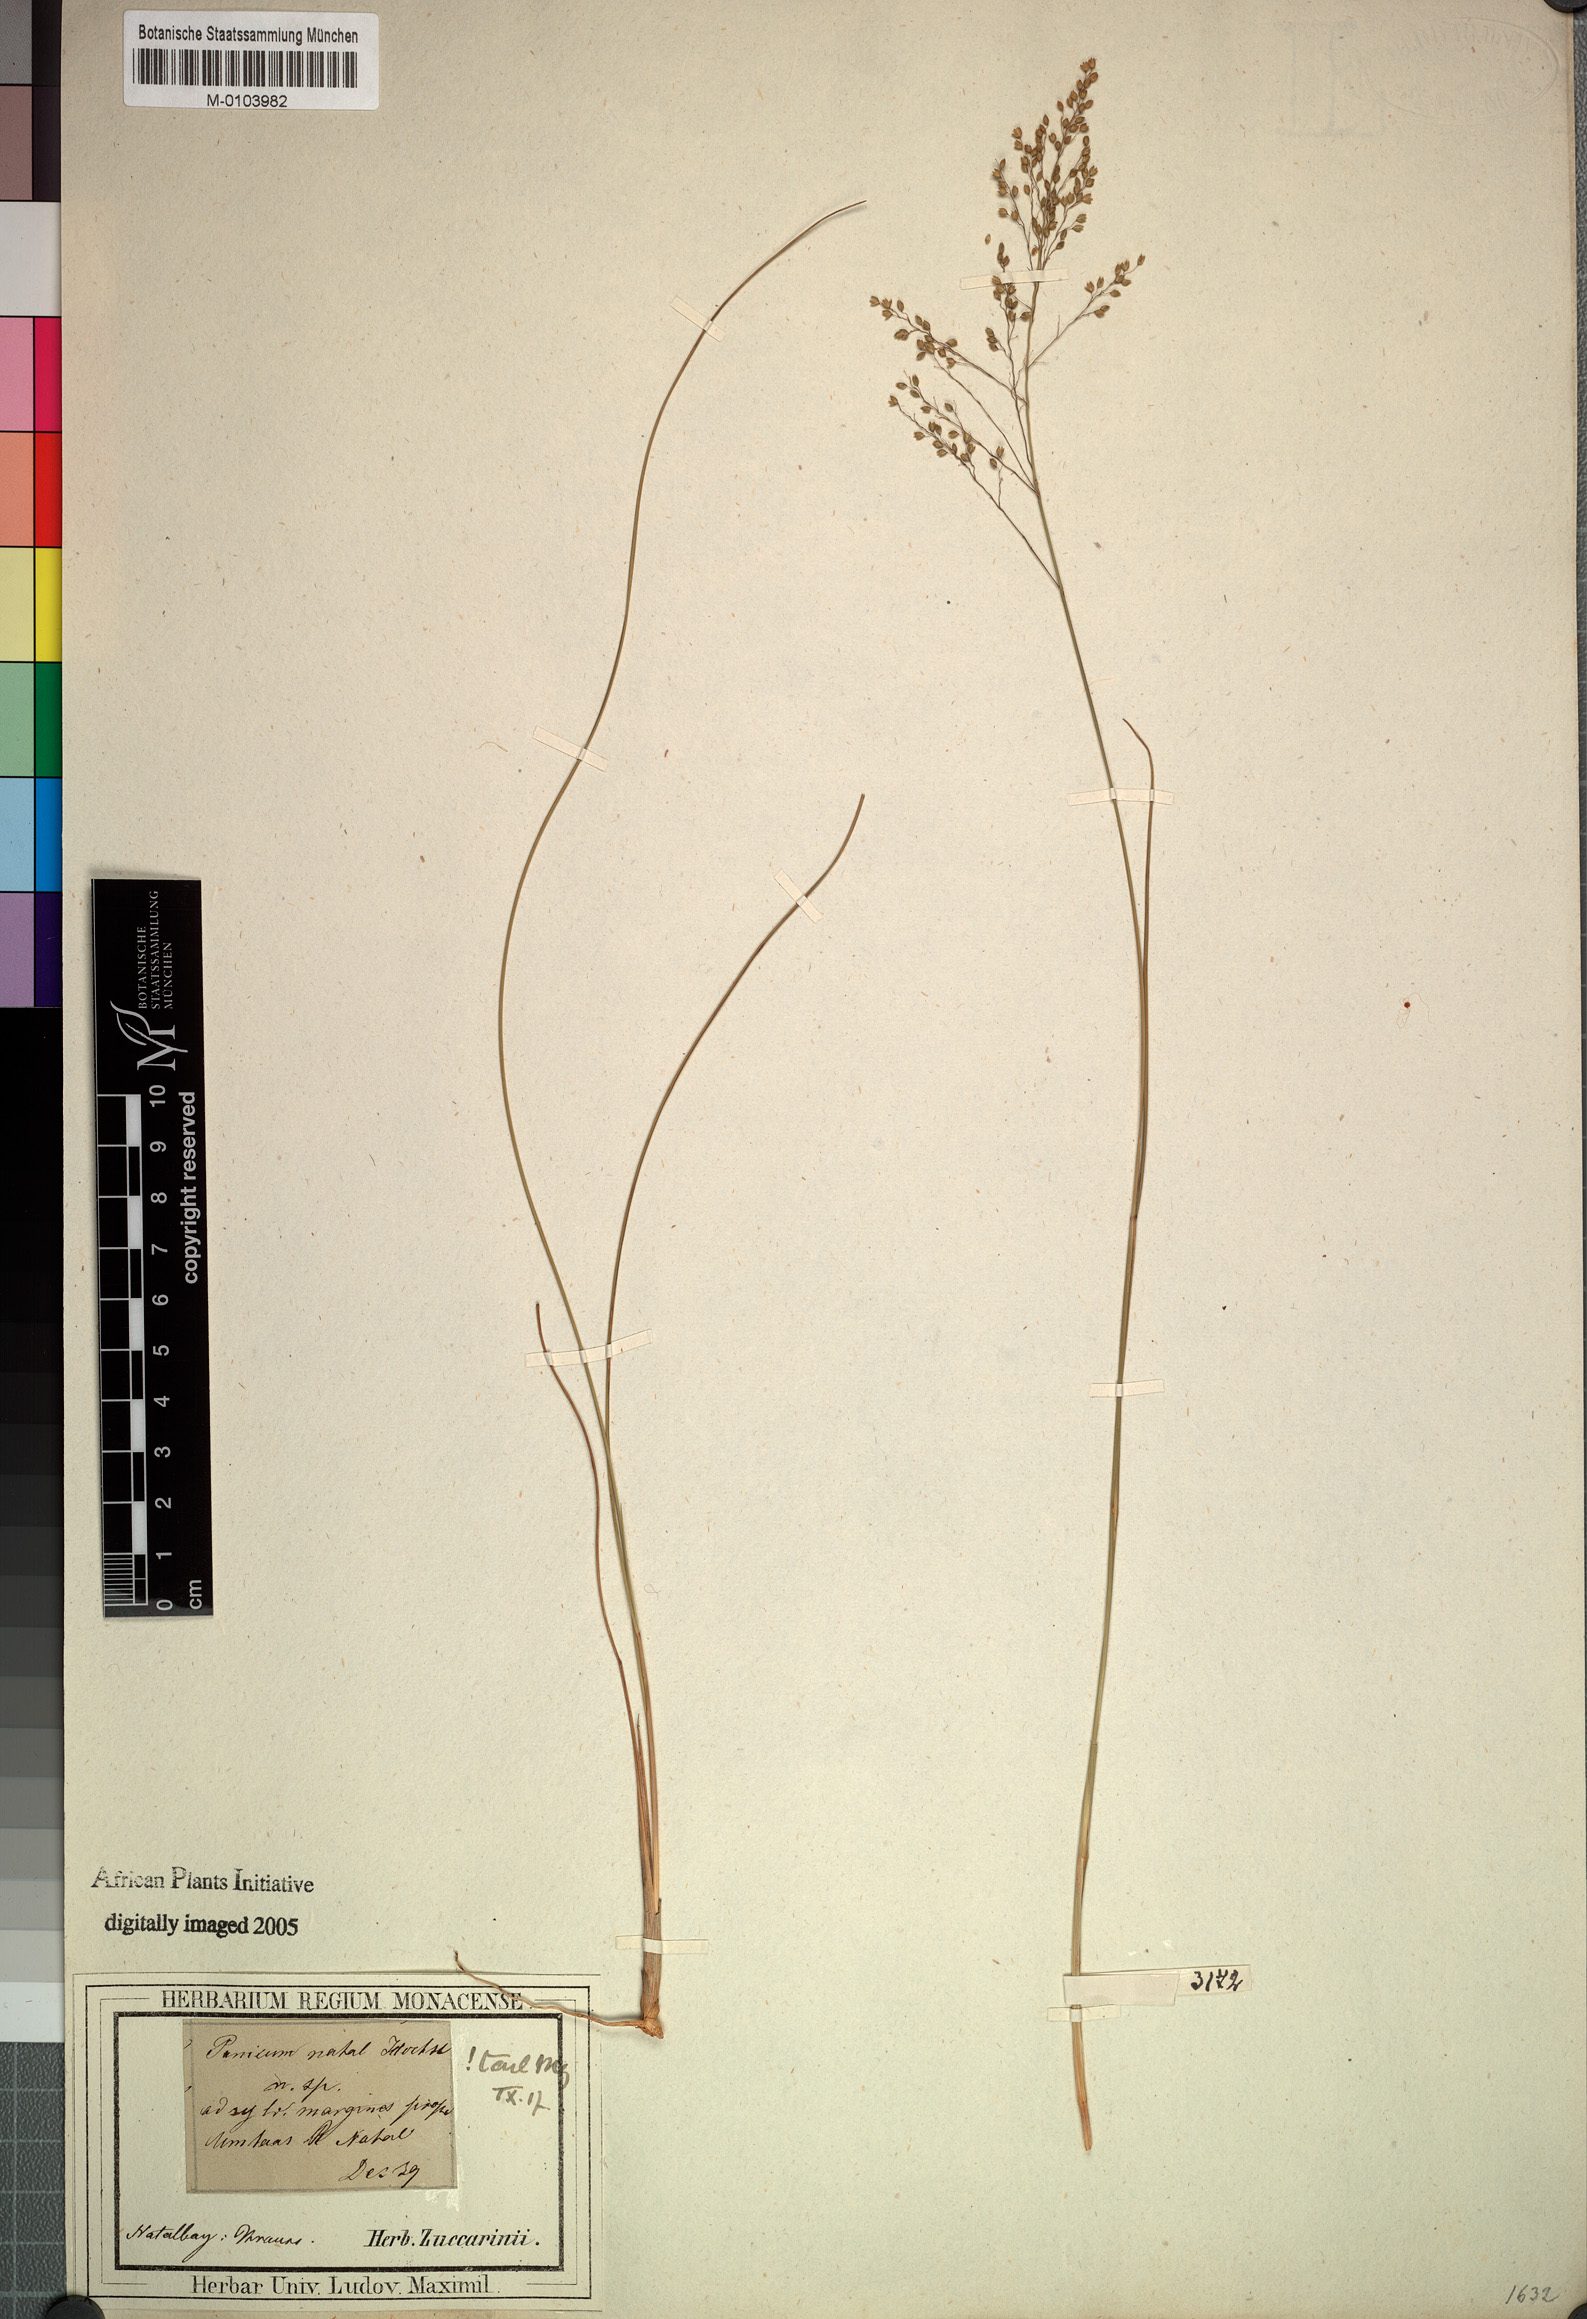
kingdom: Plantae
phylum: Tracheophyta
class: Liliopsida
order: Poales
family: Poaceae
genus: Trichanthecium
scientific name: Trichanthecium natalense
